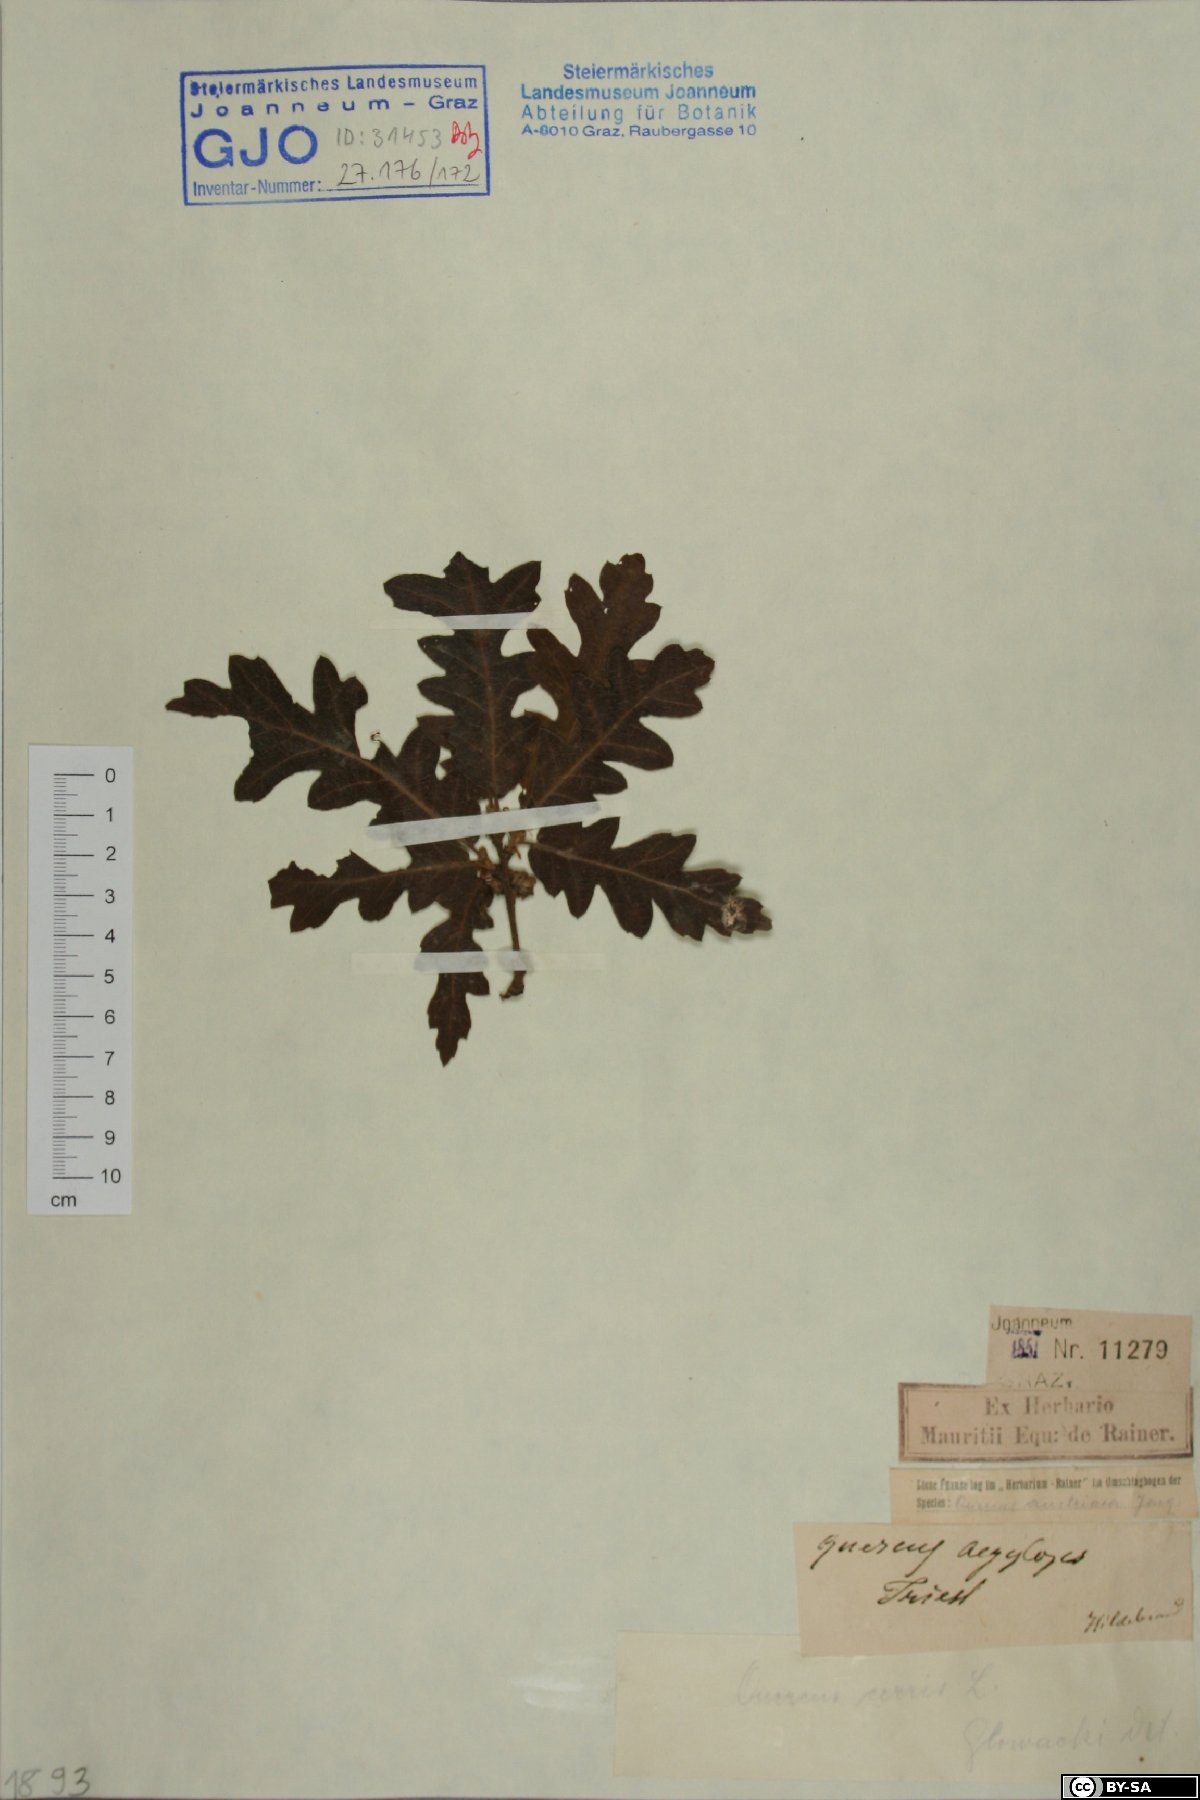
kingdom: Plantae
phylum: Tracheophyta
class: Magnoliopsida
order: Fagales
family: Fagaceae
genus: Quercus
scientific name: Quercus cerris
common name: Turkey oak
